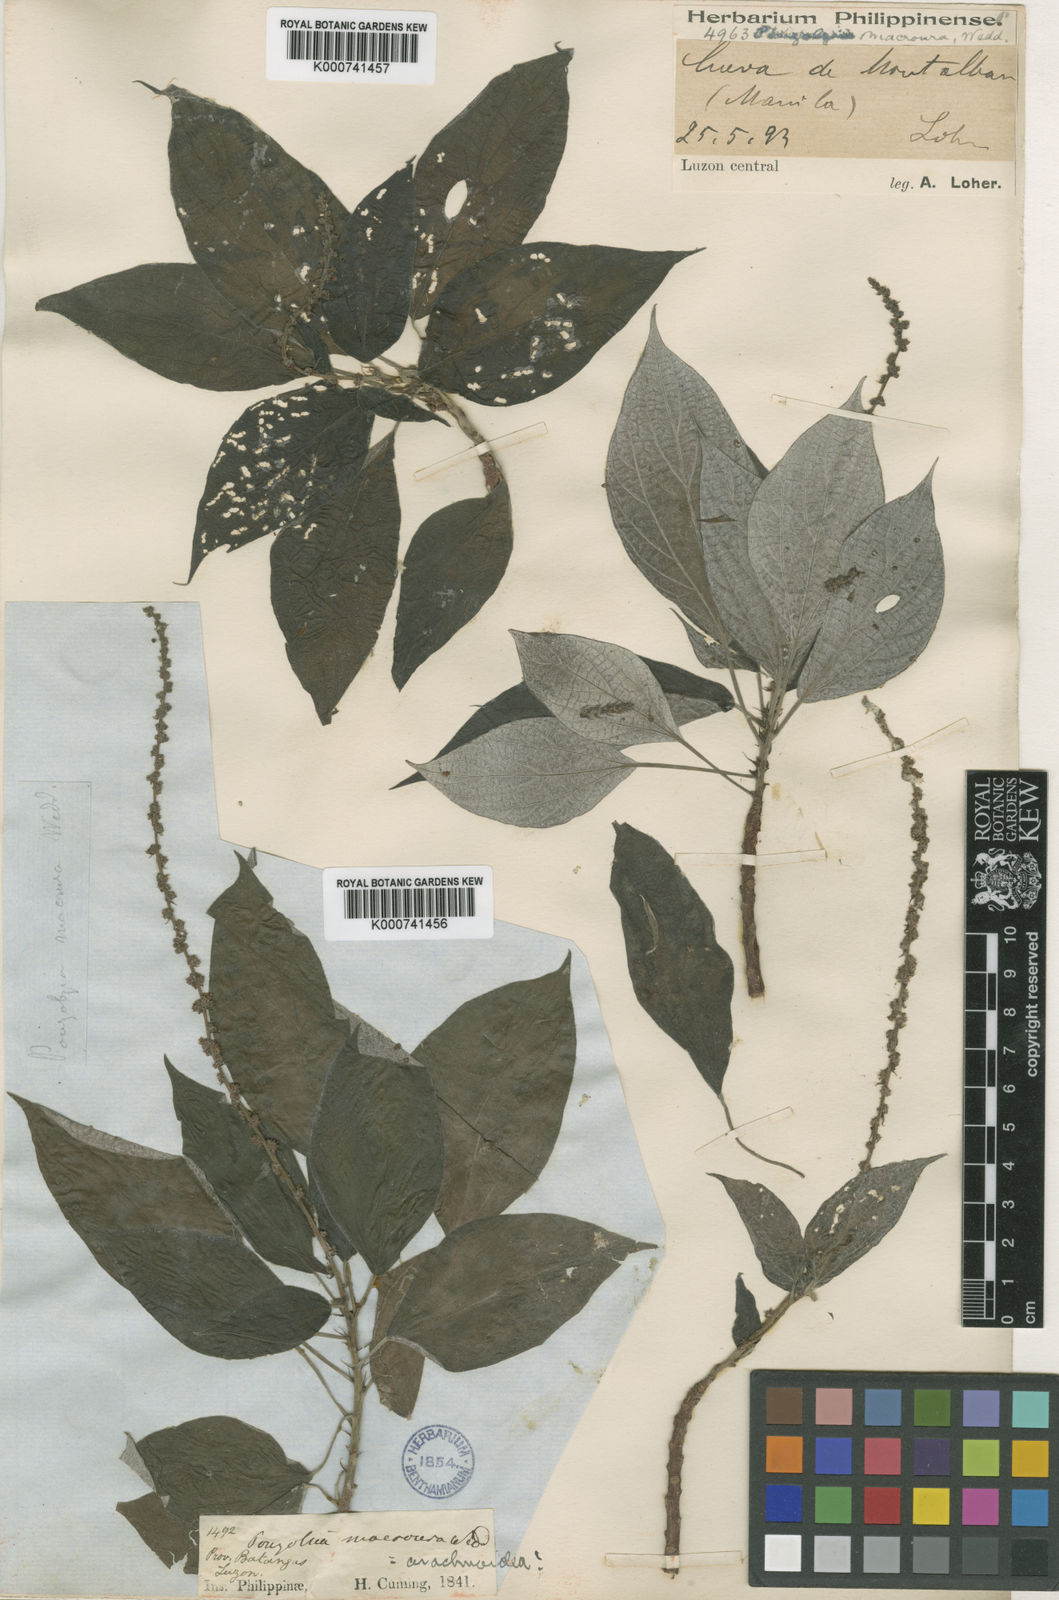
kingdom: Plantae
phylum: Tracheophyta
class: Magnoliopsida
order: Rosales
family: Urticaceae
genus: Pouzolzia
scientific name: Pouzolzia arachnoidea
